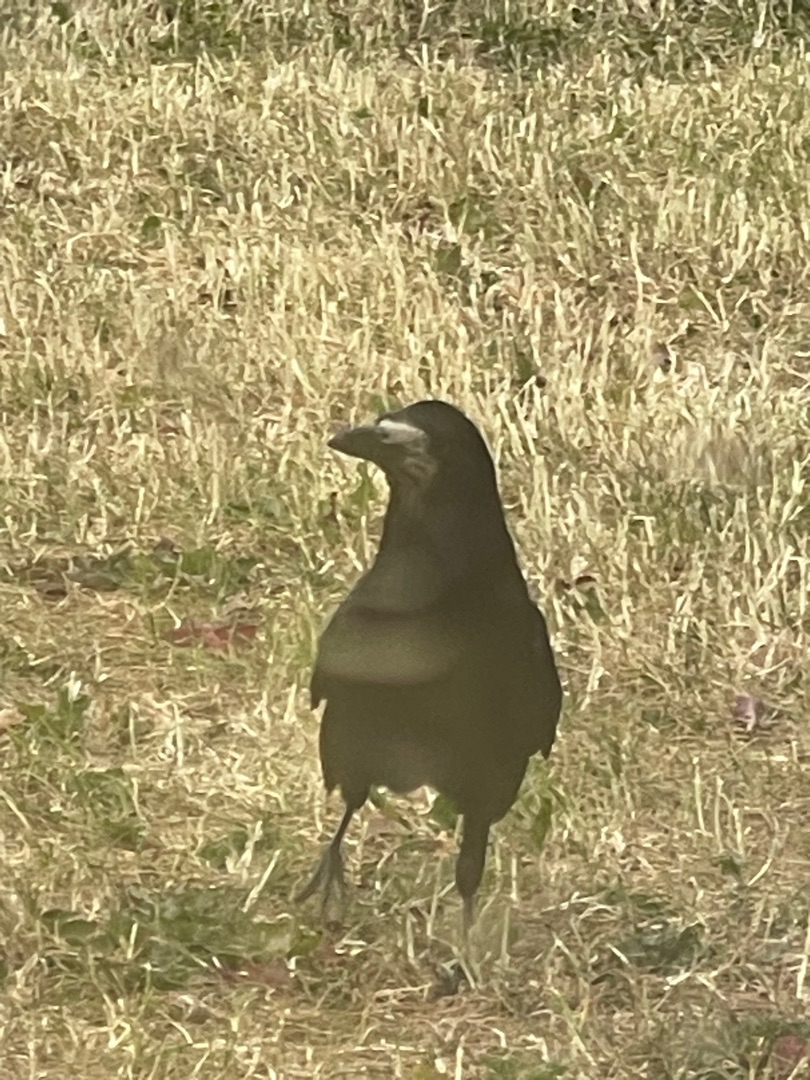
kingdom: Animalia
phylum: Chordata
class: Aves
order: Passeriformes
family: Corvidae
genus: Corvus
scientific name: Corvus frugilegus
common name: Råge
